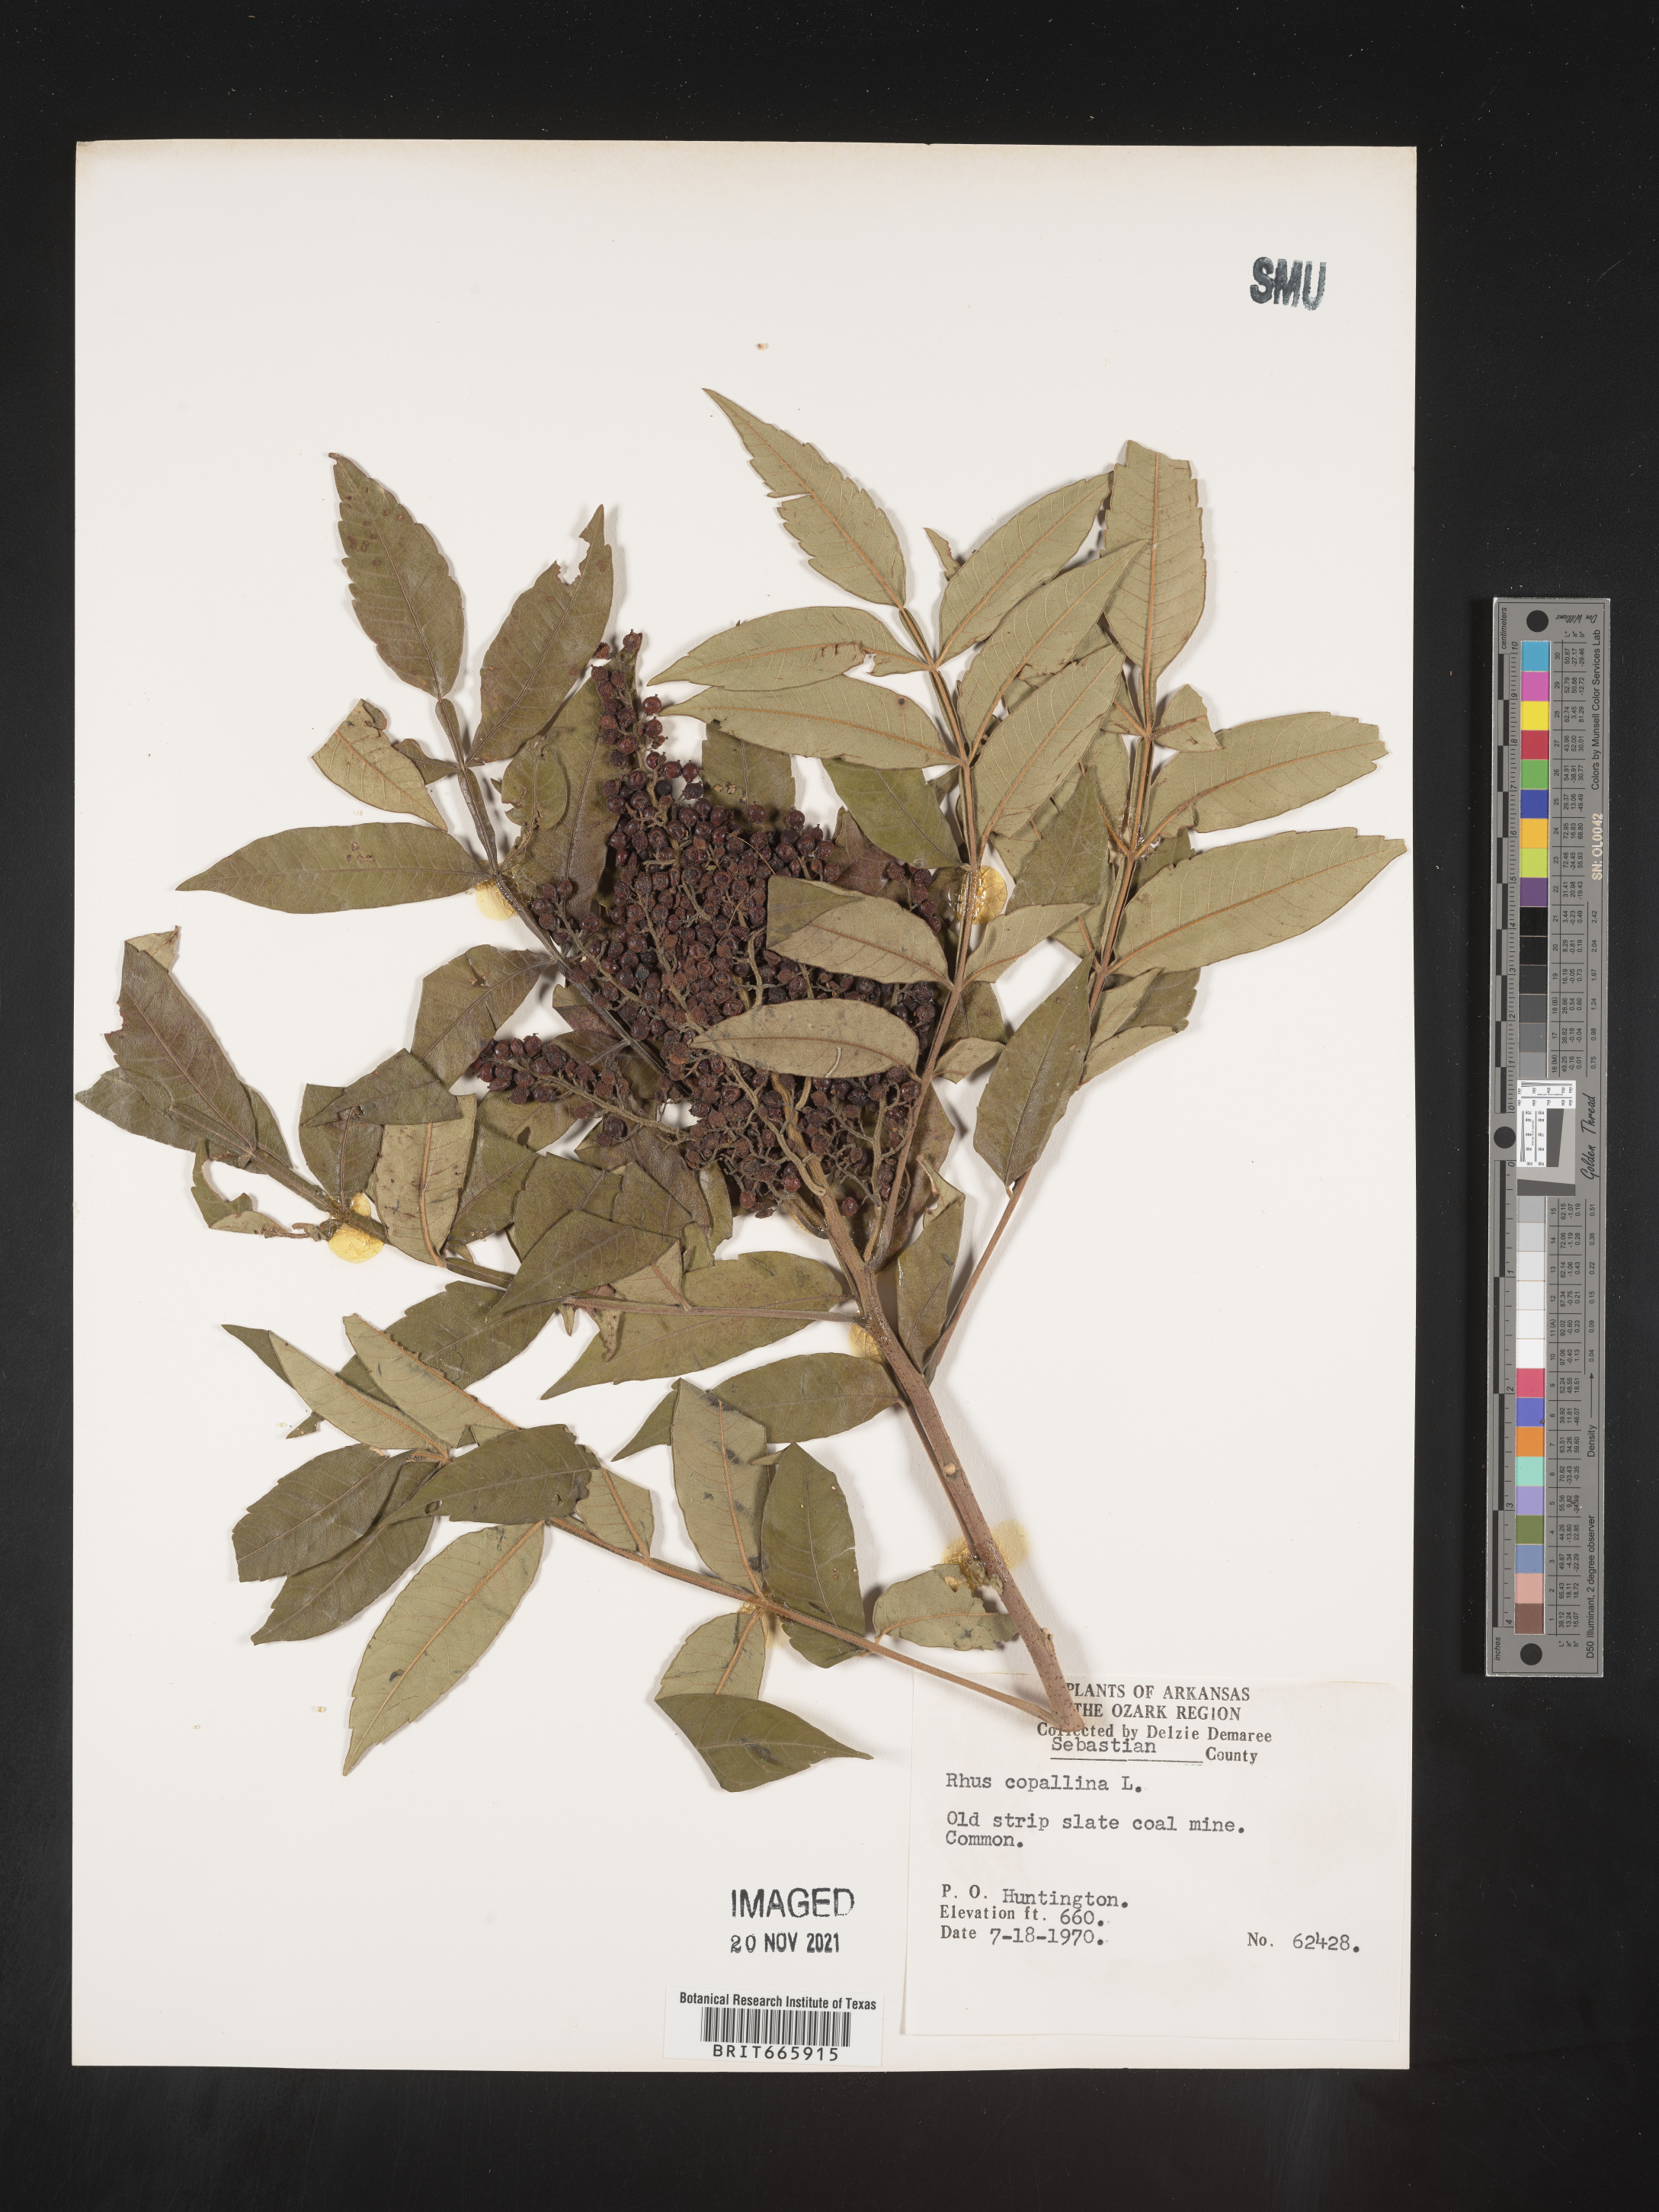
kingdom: Plantae
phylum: Tracheophyta
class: Magnoliopsida
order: Sapindales
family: Anacardiaceae
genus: Rhus
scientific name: Rhus copallina
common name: Shining sumac
